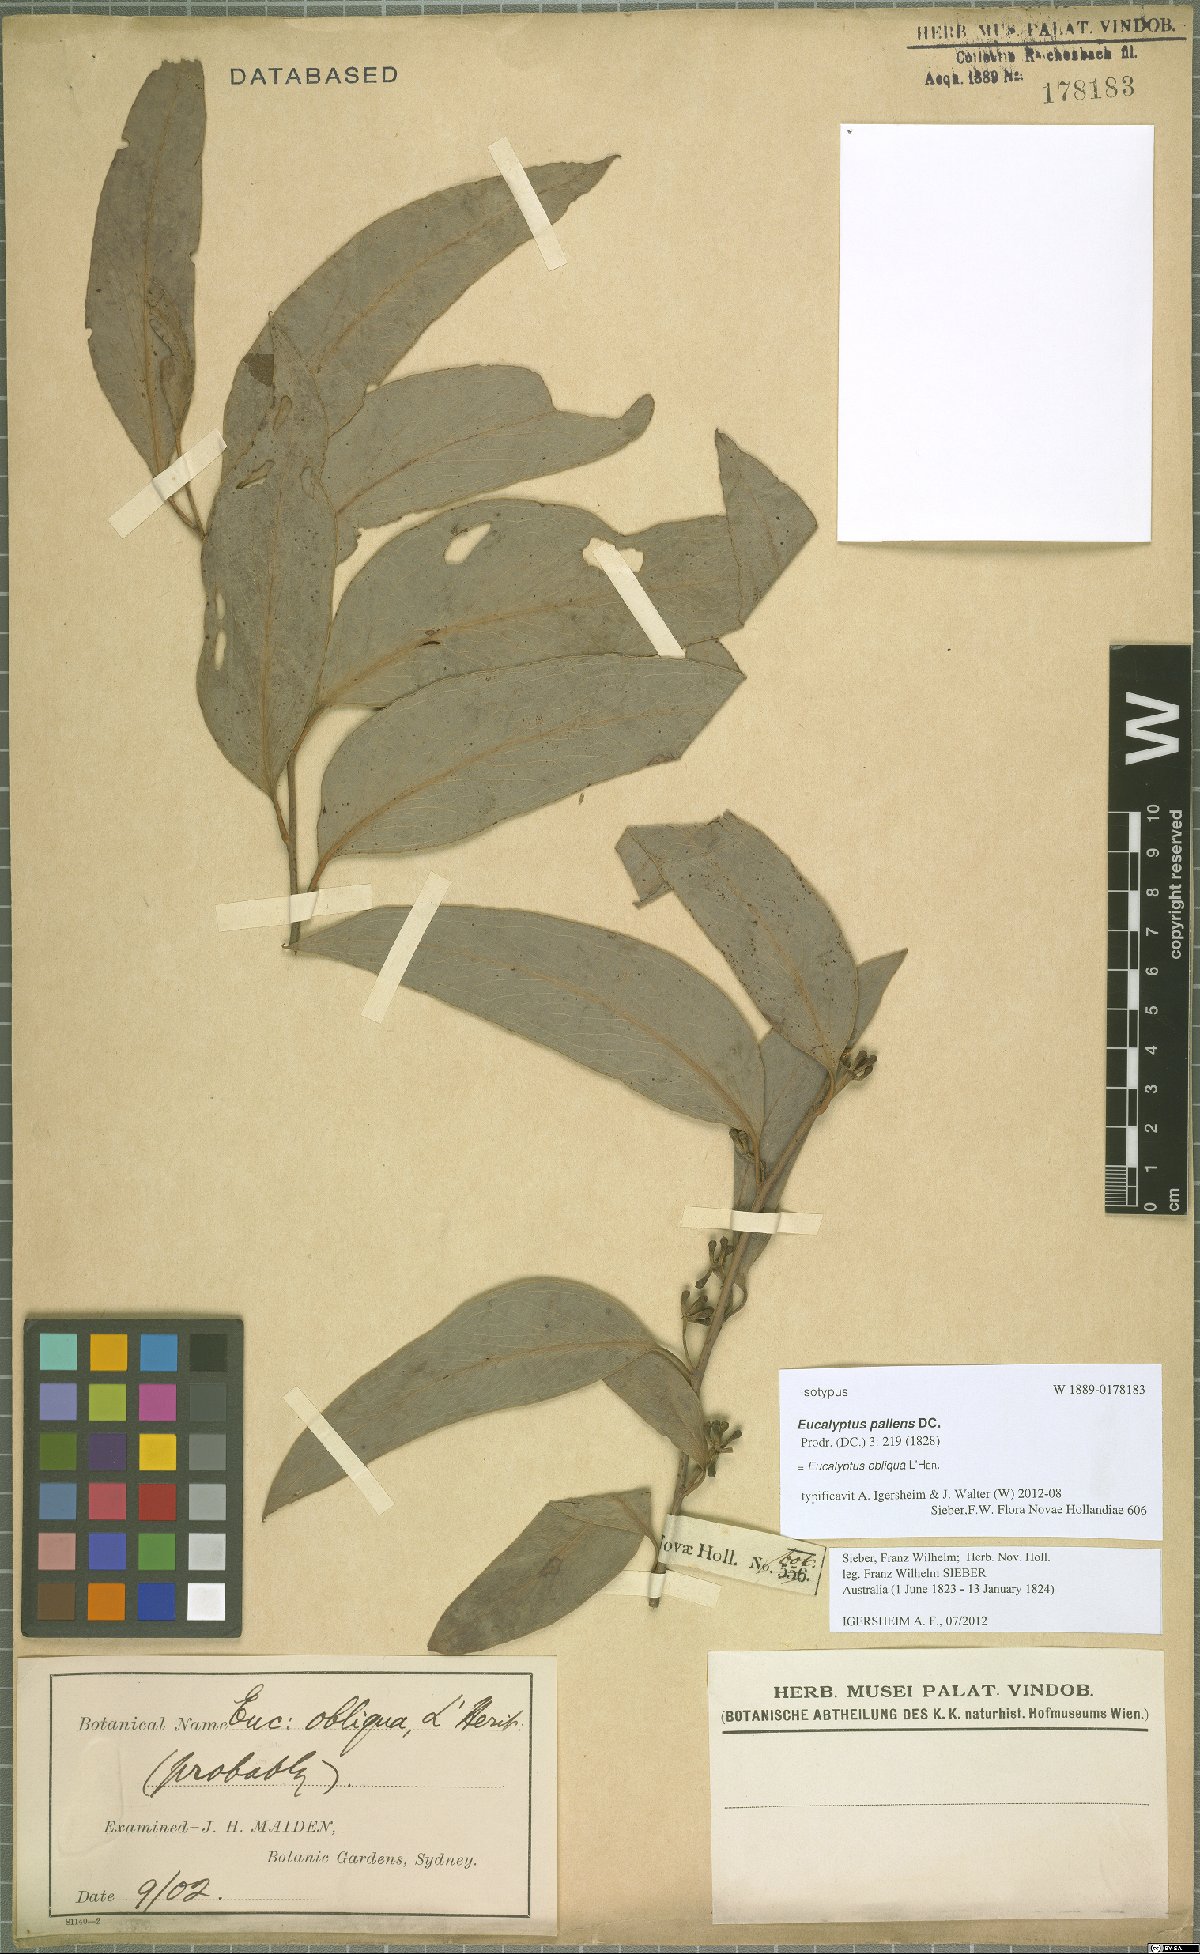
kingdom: Plantae
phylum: Tracheophyta
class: Magnoliopsida
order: Myrtales
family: Myrtaceae
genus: Eucalyptus
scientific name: Eucalyptus obliqua
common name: Messmate stringybark
